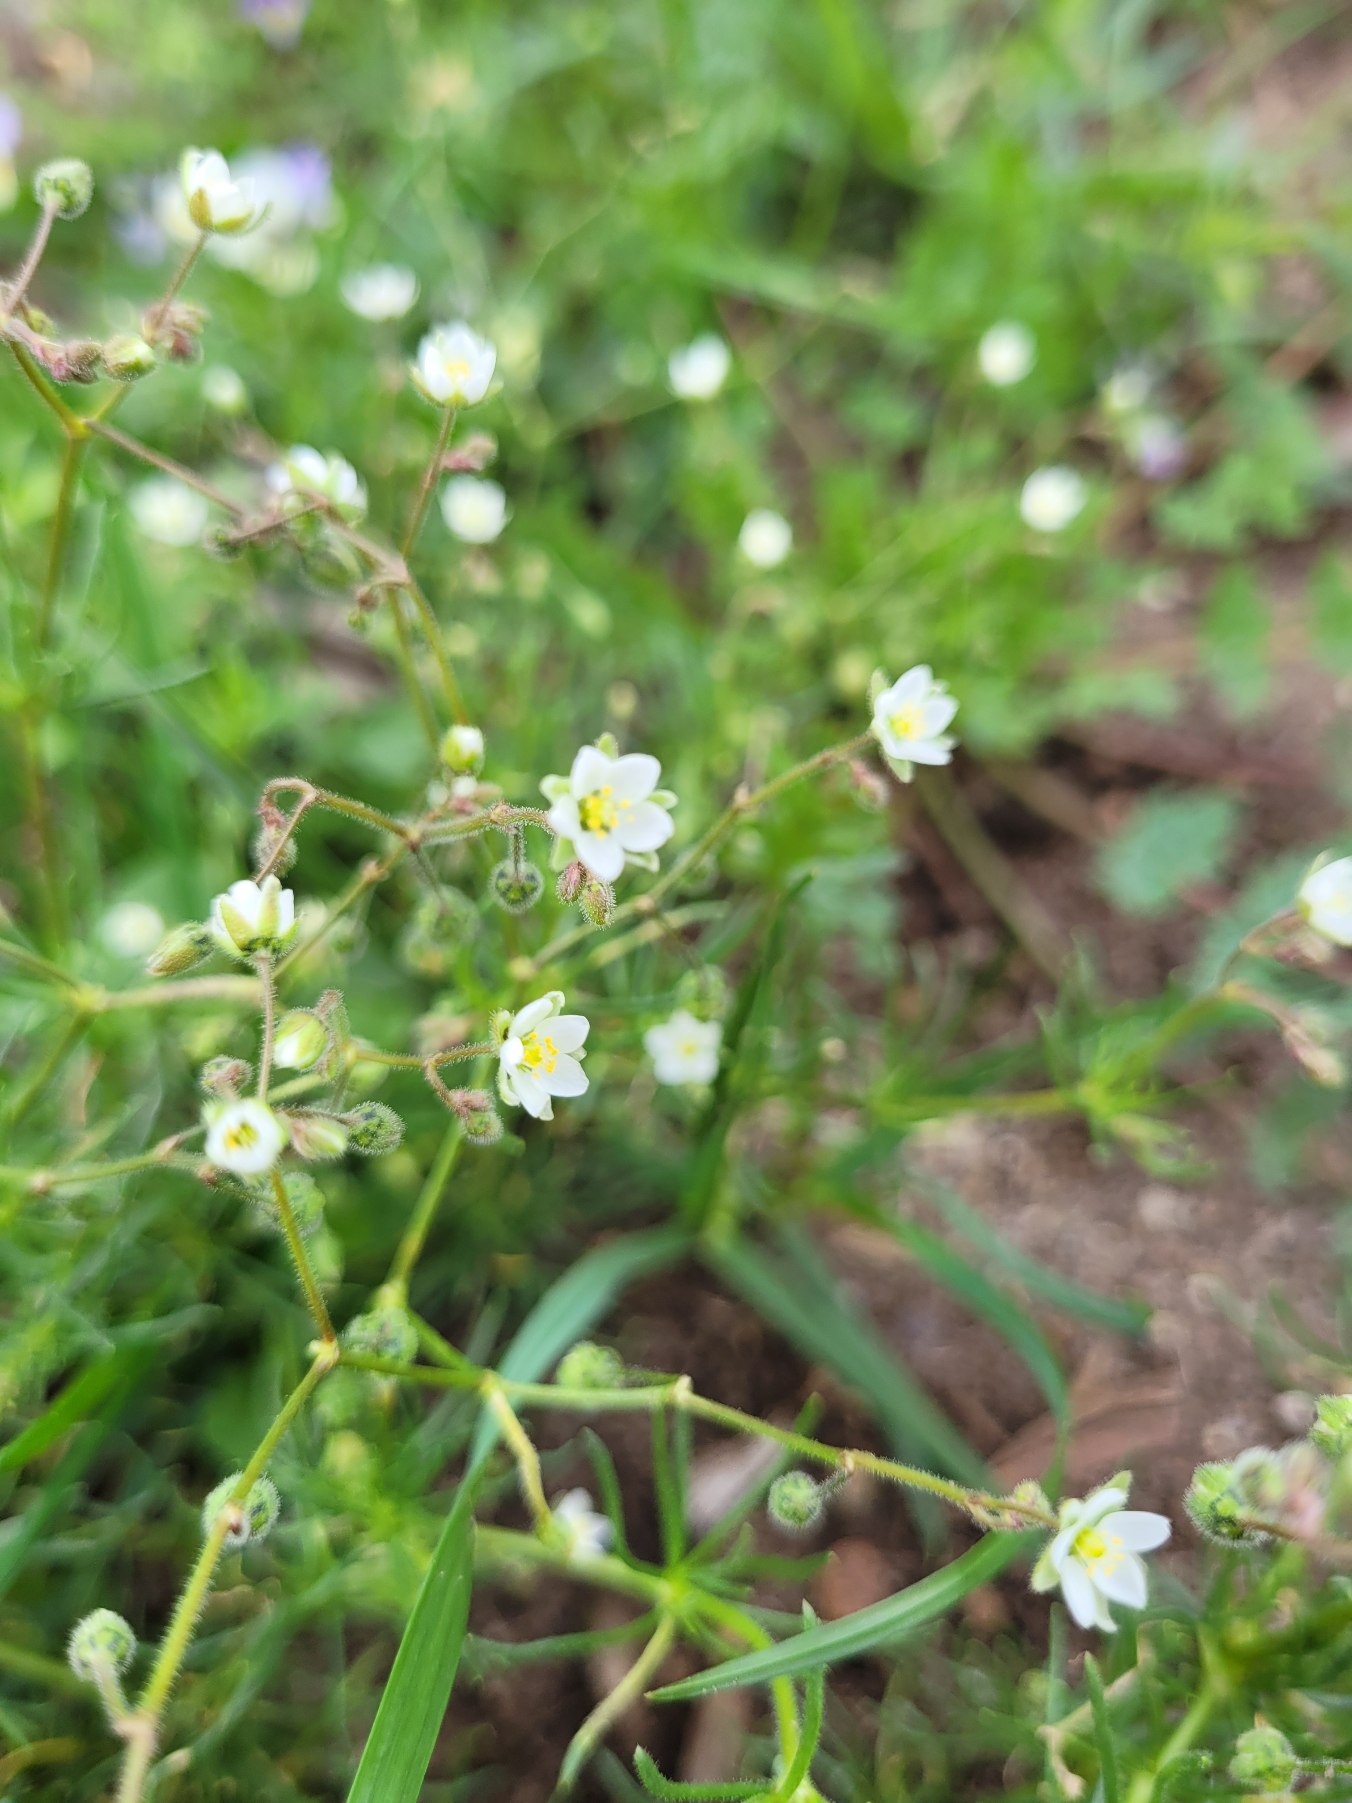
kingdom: Plantae
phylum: Tracheophyta
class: Magnoliopsida
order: Caryophyllales
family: Caryophyllaceae
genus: Spergula
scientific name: Spergula arvensis
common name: Almindelig spergel (underart)
